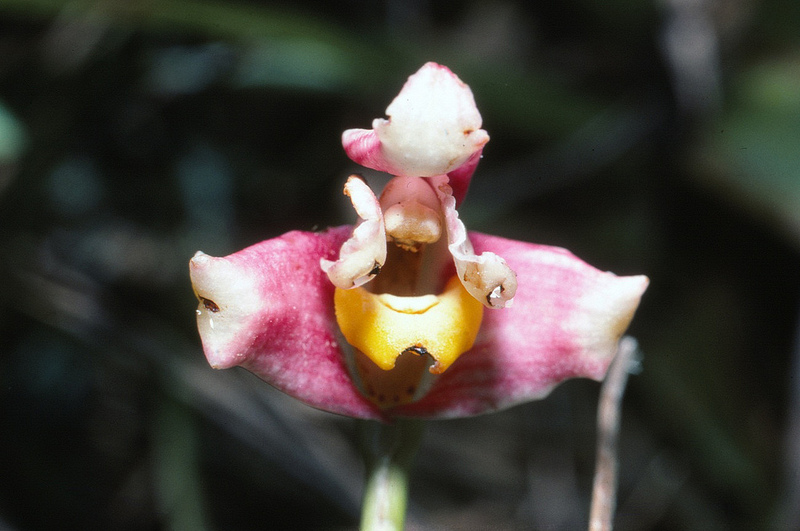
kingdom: Plantae
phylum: Tracheophyta
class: Liliopsida
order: Asparagales
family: Orchidaceae
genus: Maxillaria
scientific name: Maxillaria hillsii
